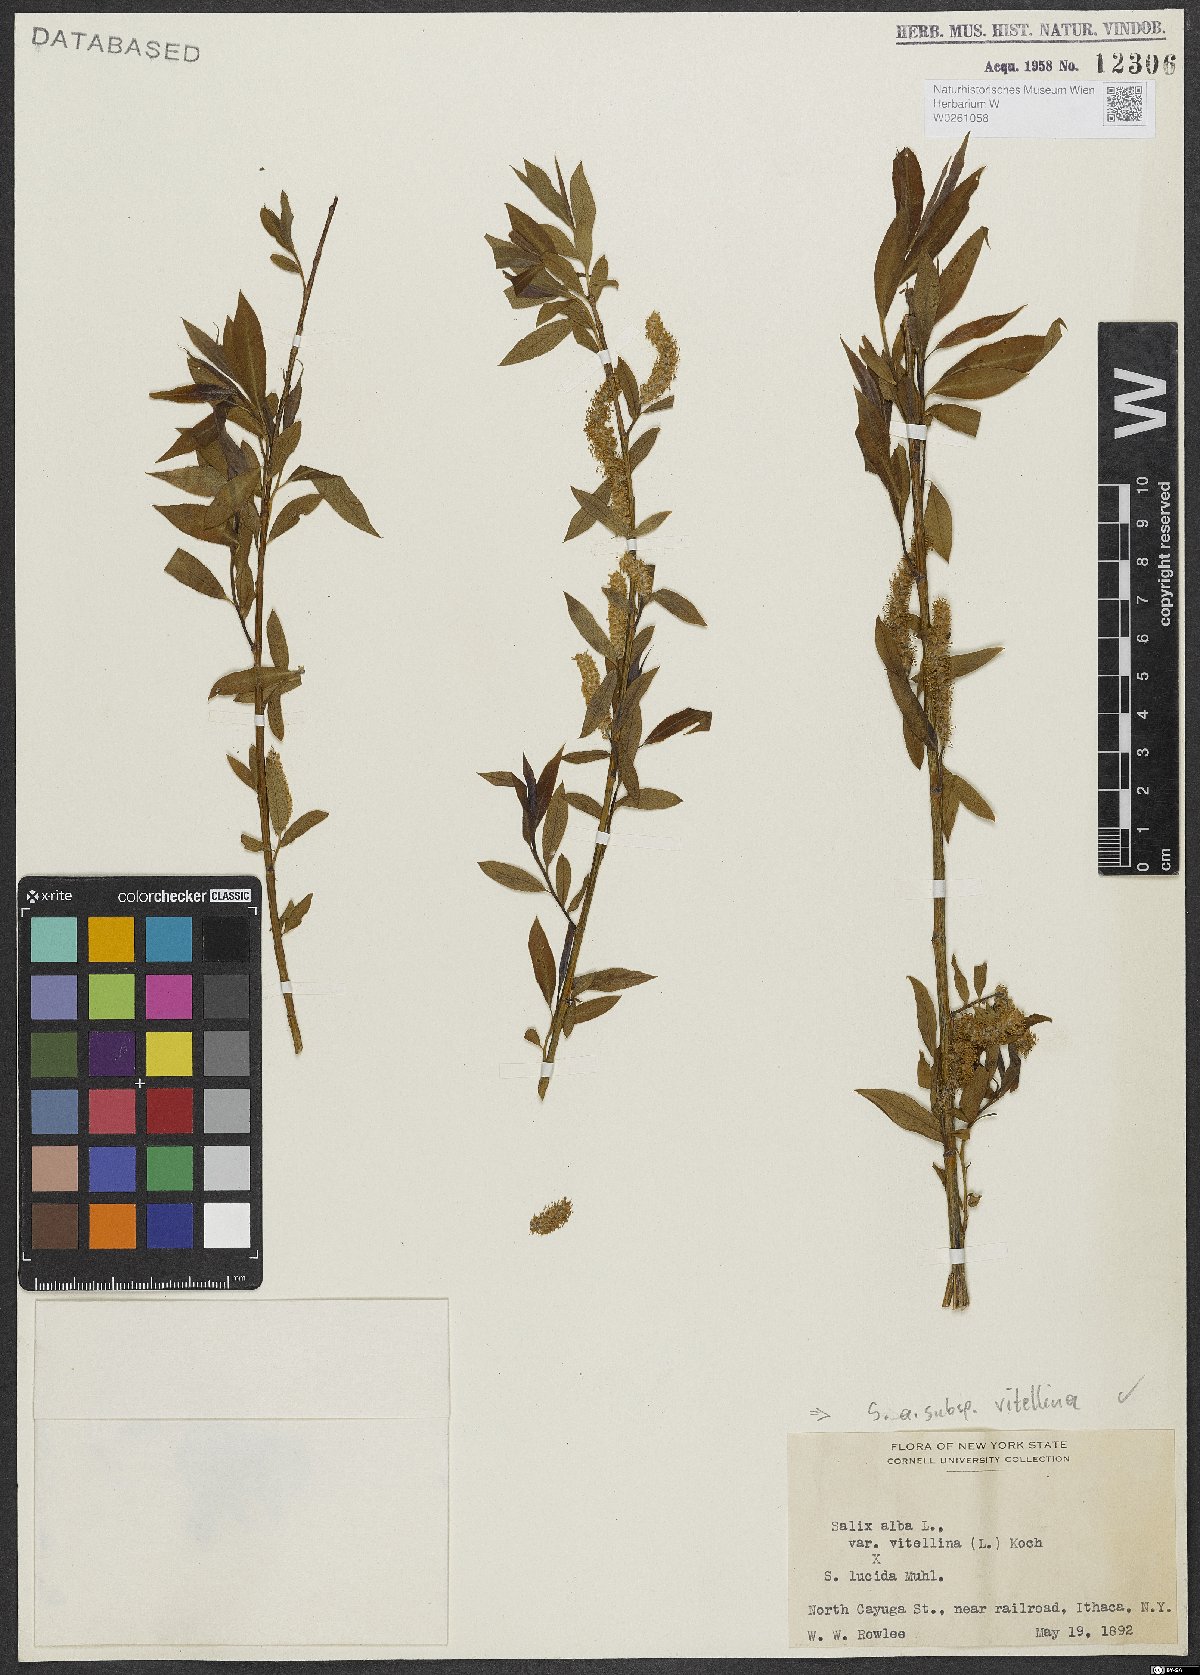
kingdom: Plantae
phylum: Tracheophyta
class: Magnoliopsida
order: Malpighiales
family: Salicaceae
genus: Salix
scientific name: Salix alba
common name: White willow
